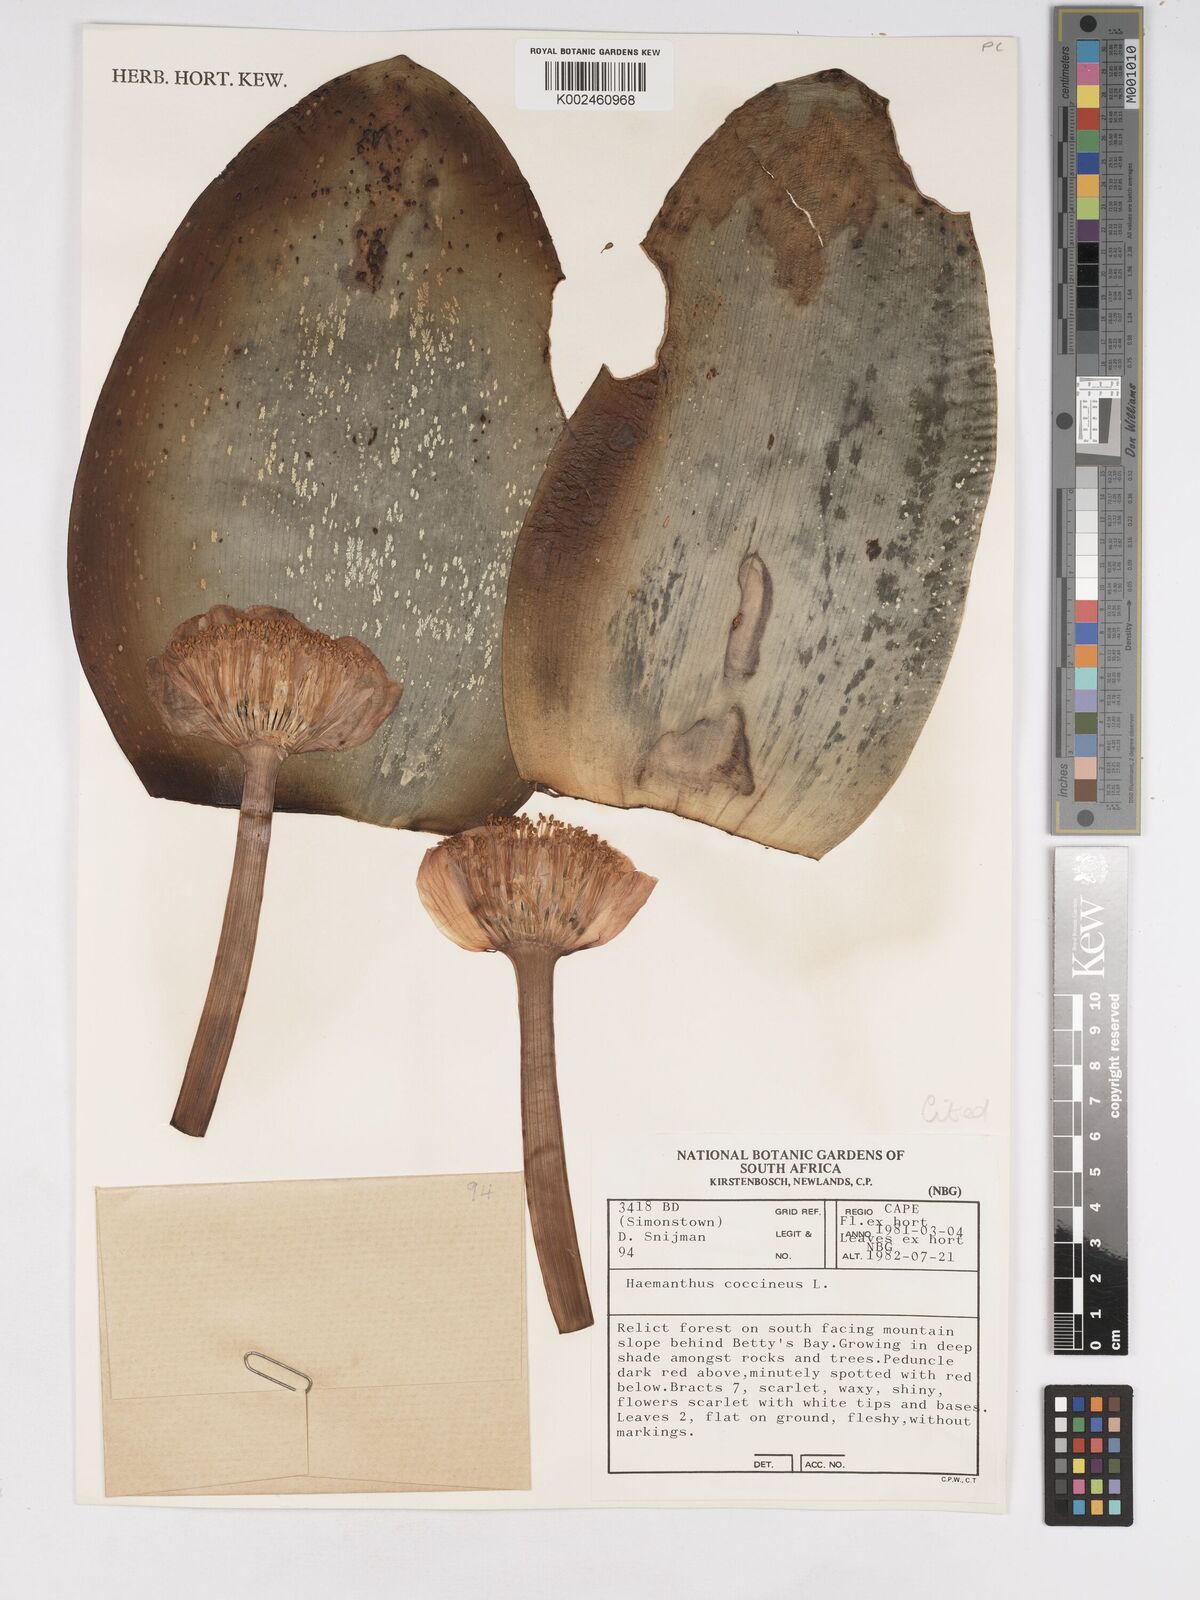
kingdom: Plantae
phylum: Tracheophyta
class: Liliopsida
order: Asparagales
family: Amaryllidaceae
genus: Haemanthus
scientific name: Haemanthus coccineus
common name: Cape-tulip
